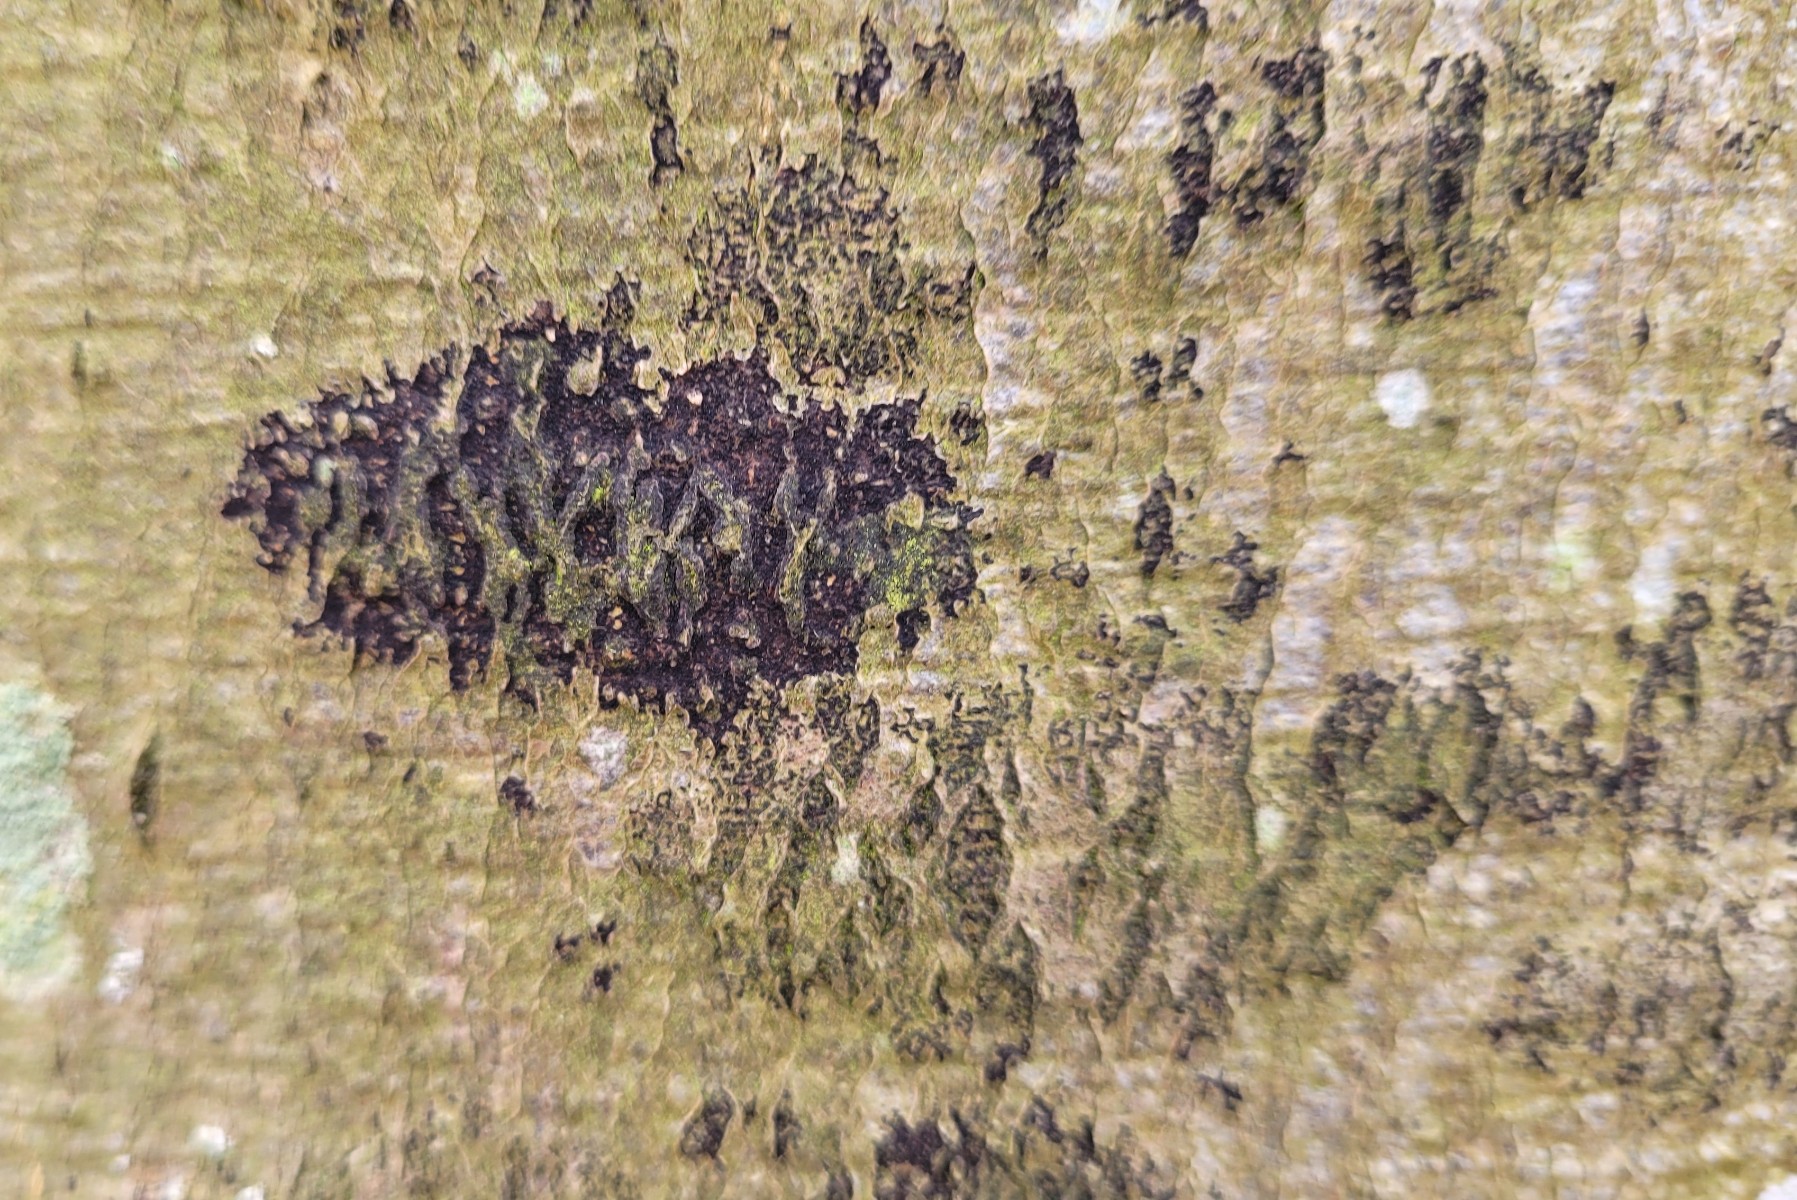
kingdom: Fungi
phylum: Ascomycota
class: Leotiomycetes
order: Rhytismatales
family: Ascodichaenaceae
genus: Ascodichaena
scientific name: Ascodichaena rugosa
